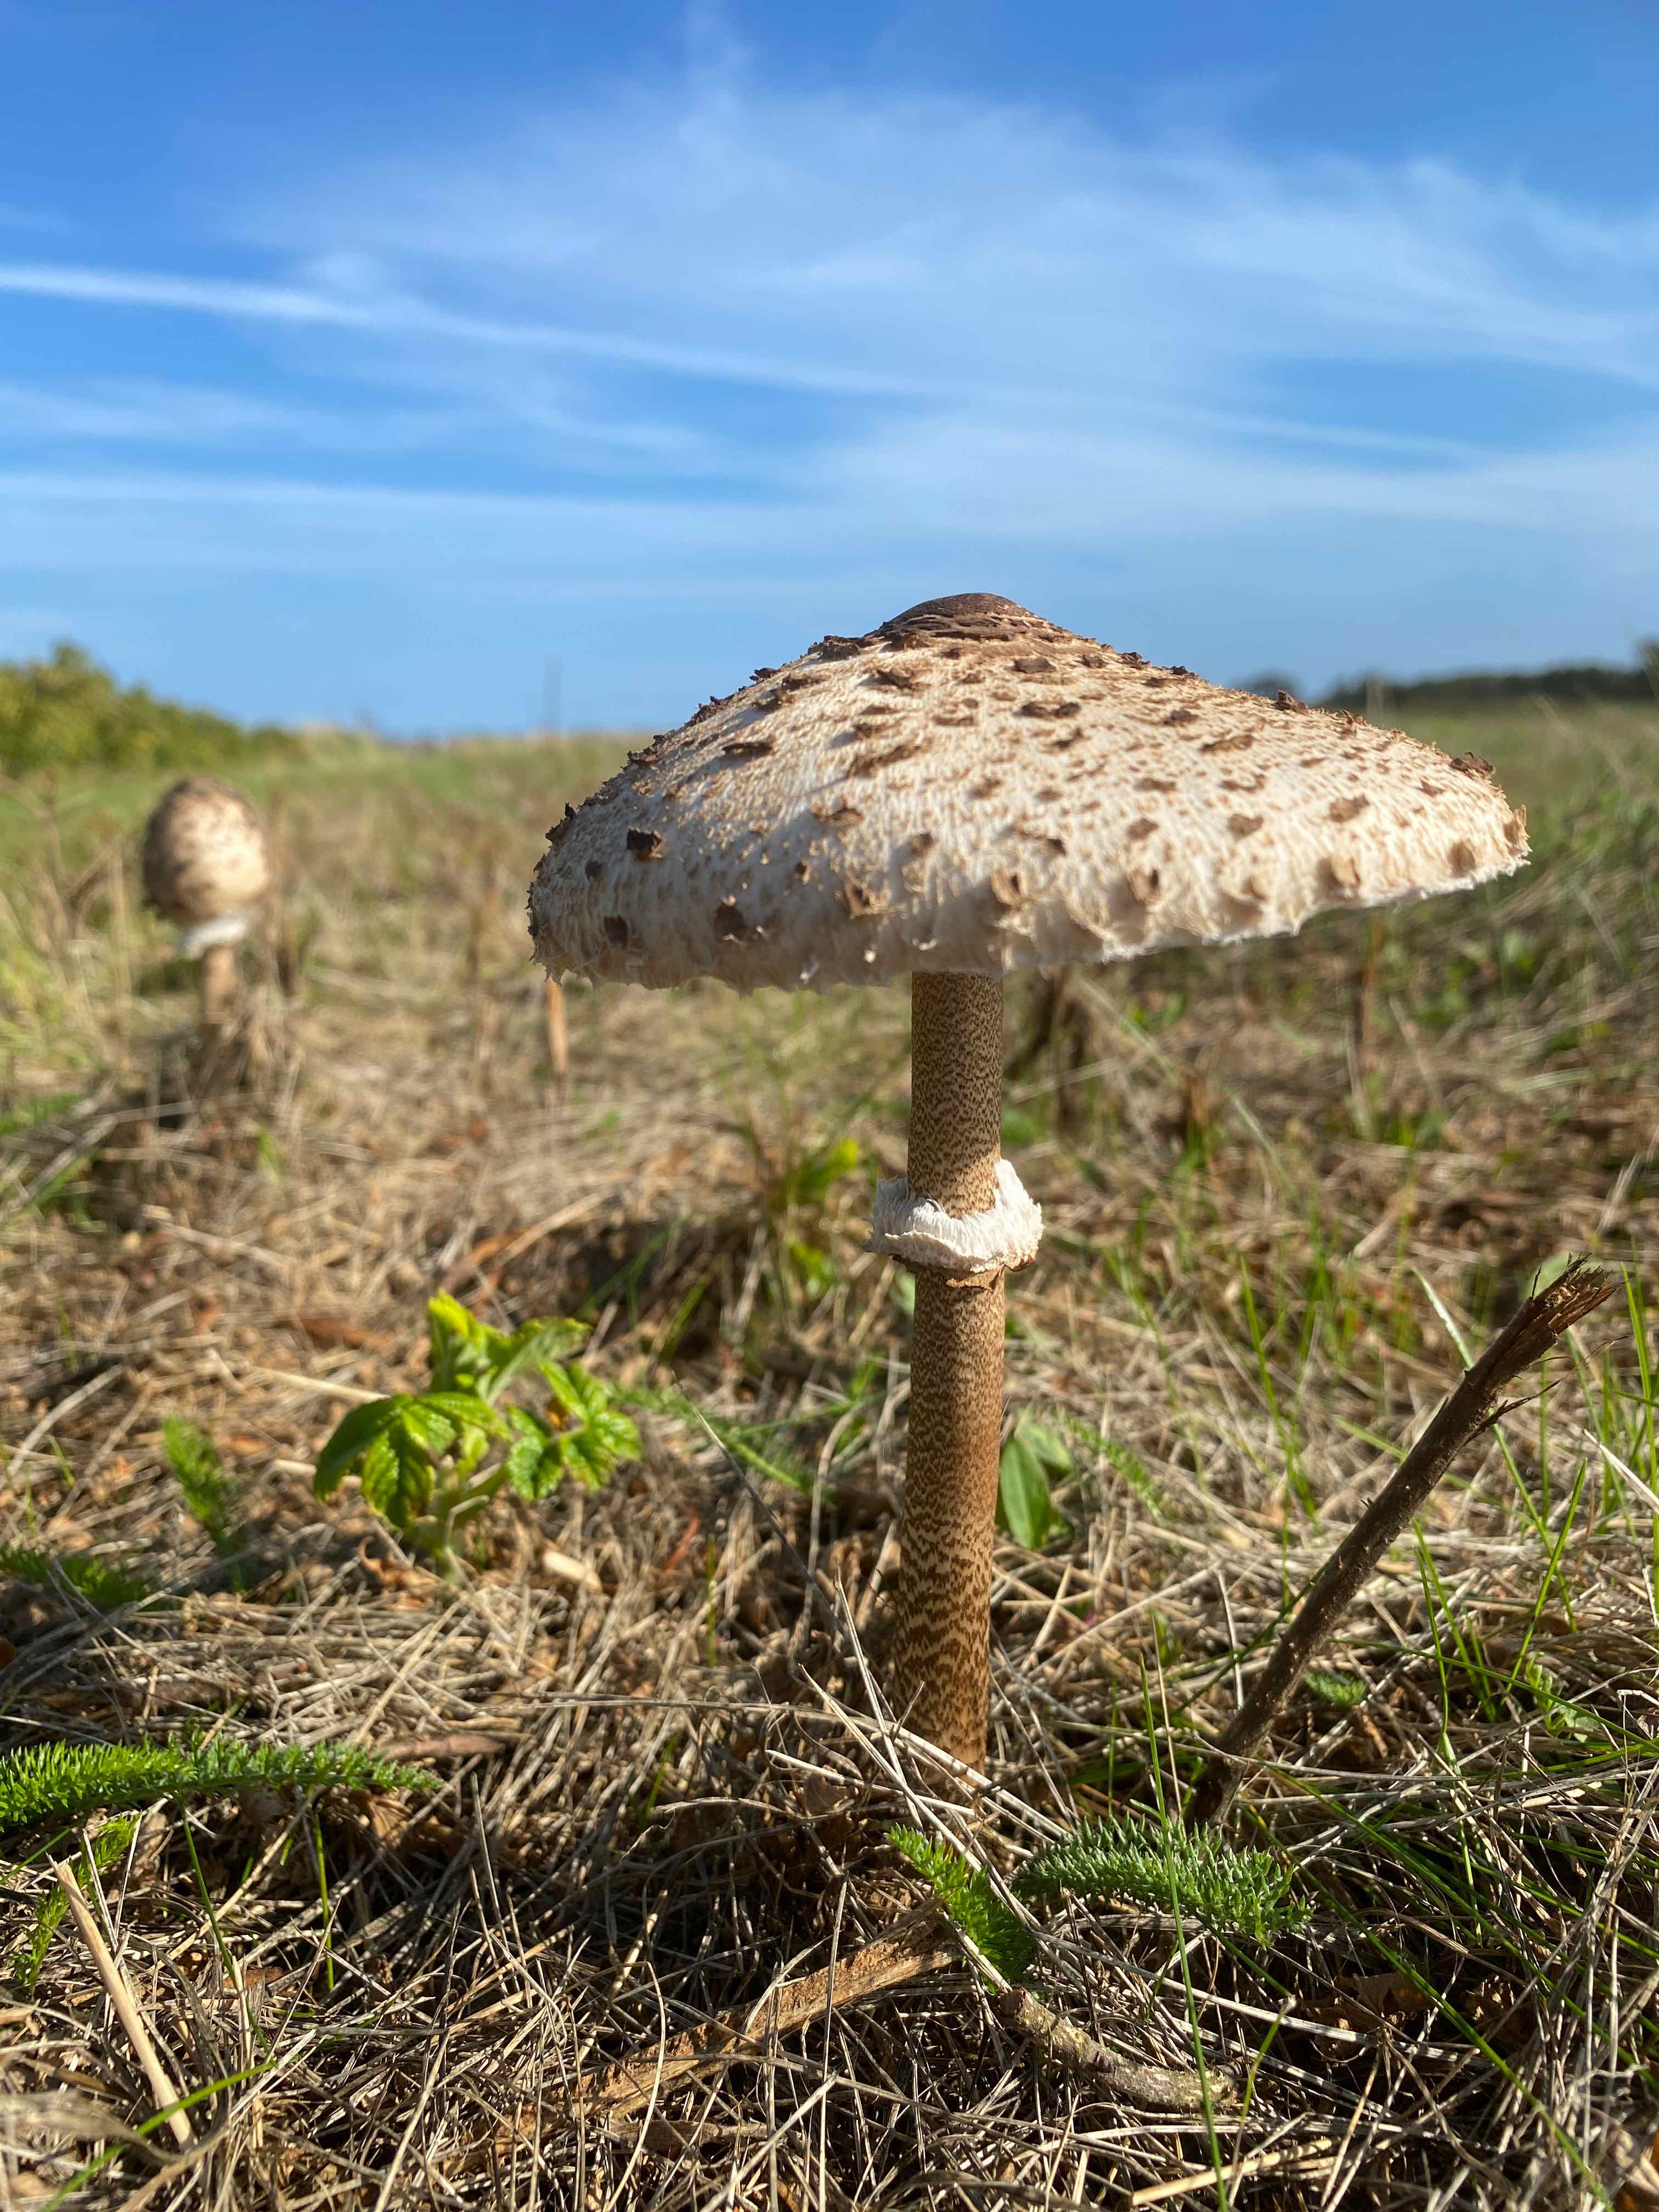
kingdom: Fungi
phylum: Basidiomycota
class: Agaricomycetes
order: Agaricales
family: Agaricaceae
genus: Macrolepiota
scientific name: Macrolepiota procera
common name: stor kæmpeparasolhat
